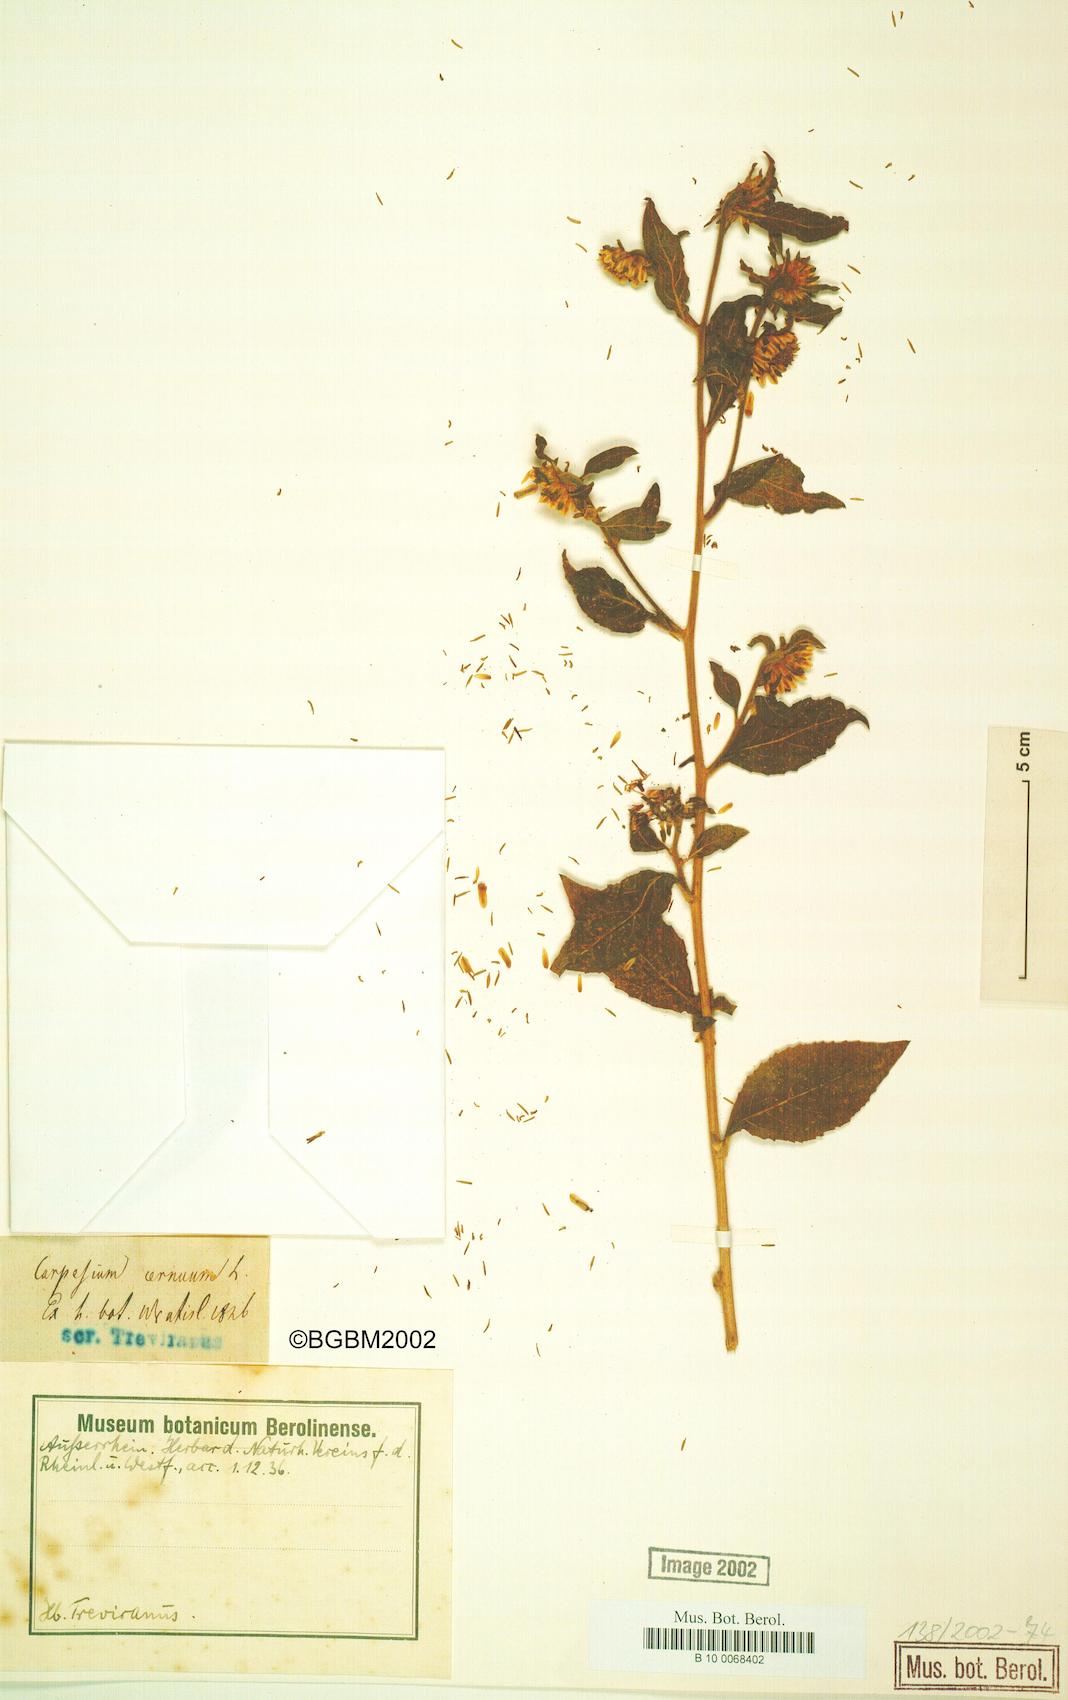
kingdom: Plantae
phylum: Tracheophyta
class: Magnoliopsida
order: Asterales
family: Asteraceae
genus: Carpesium
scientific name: Carpesium cernuum
